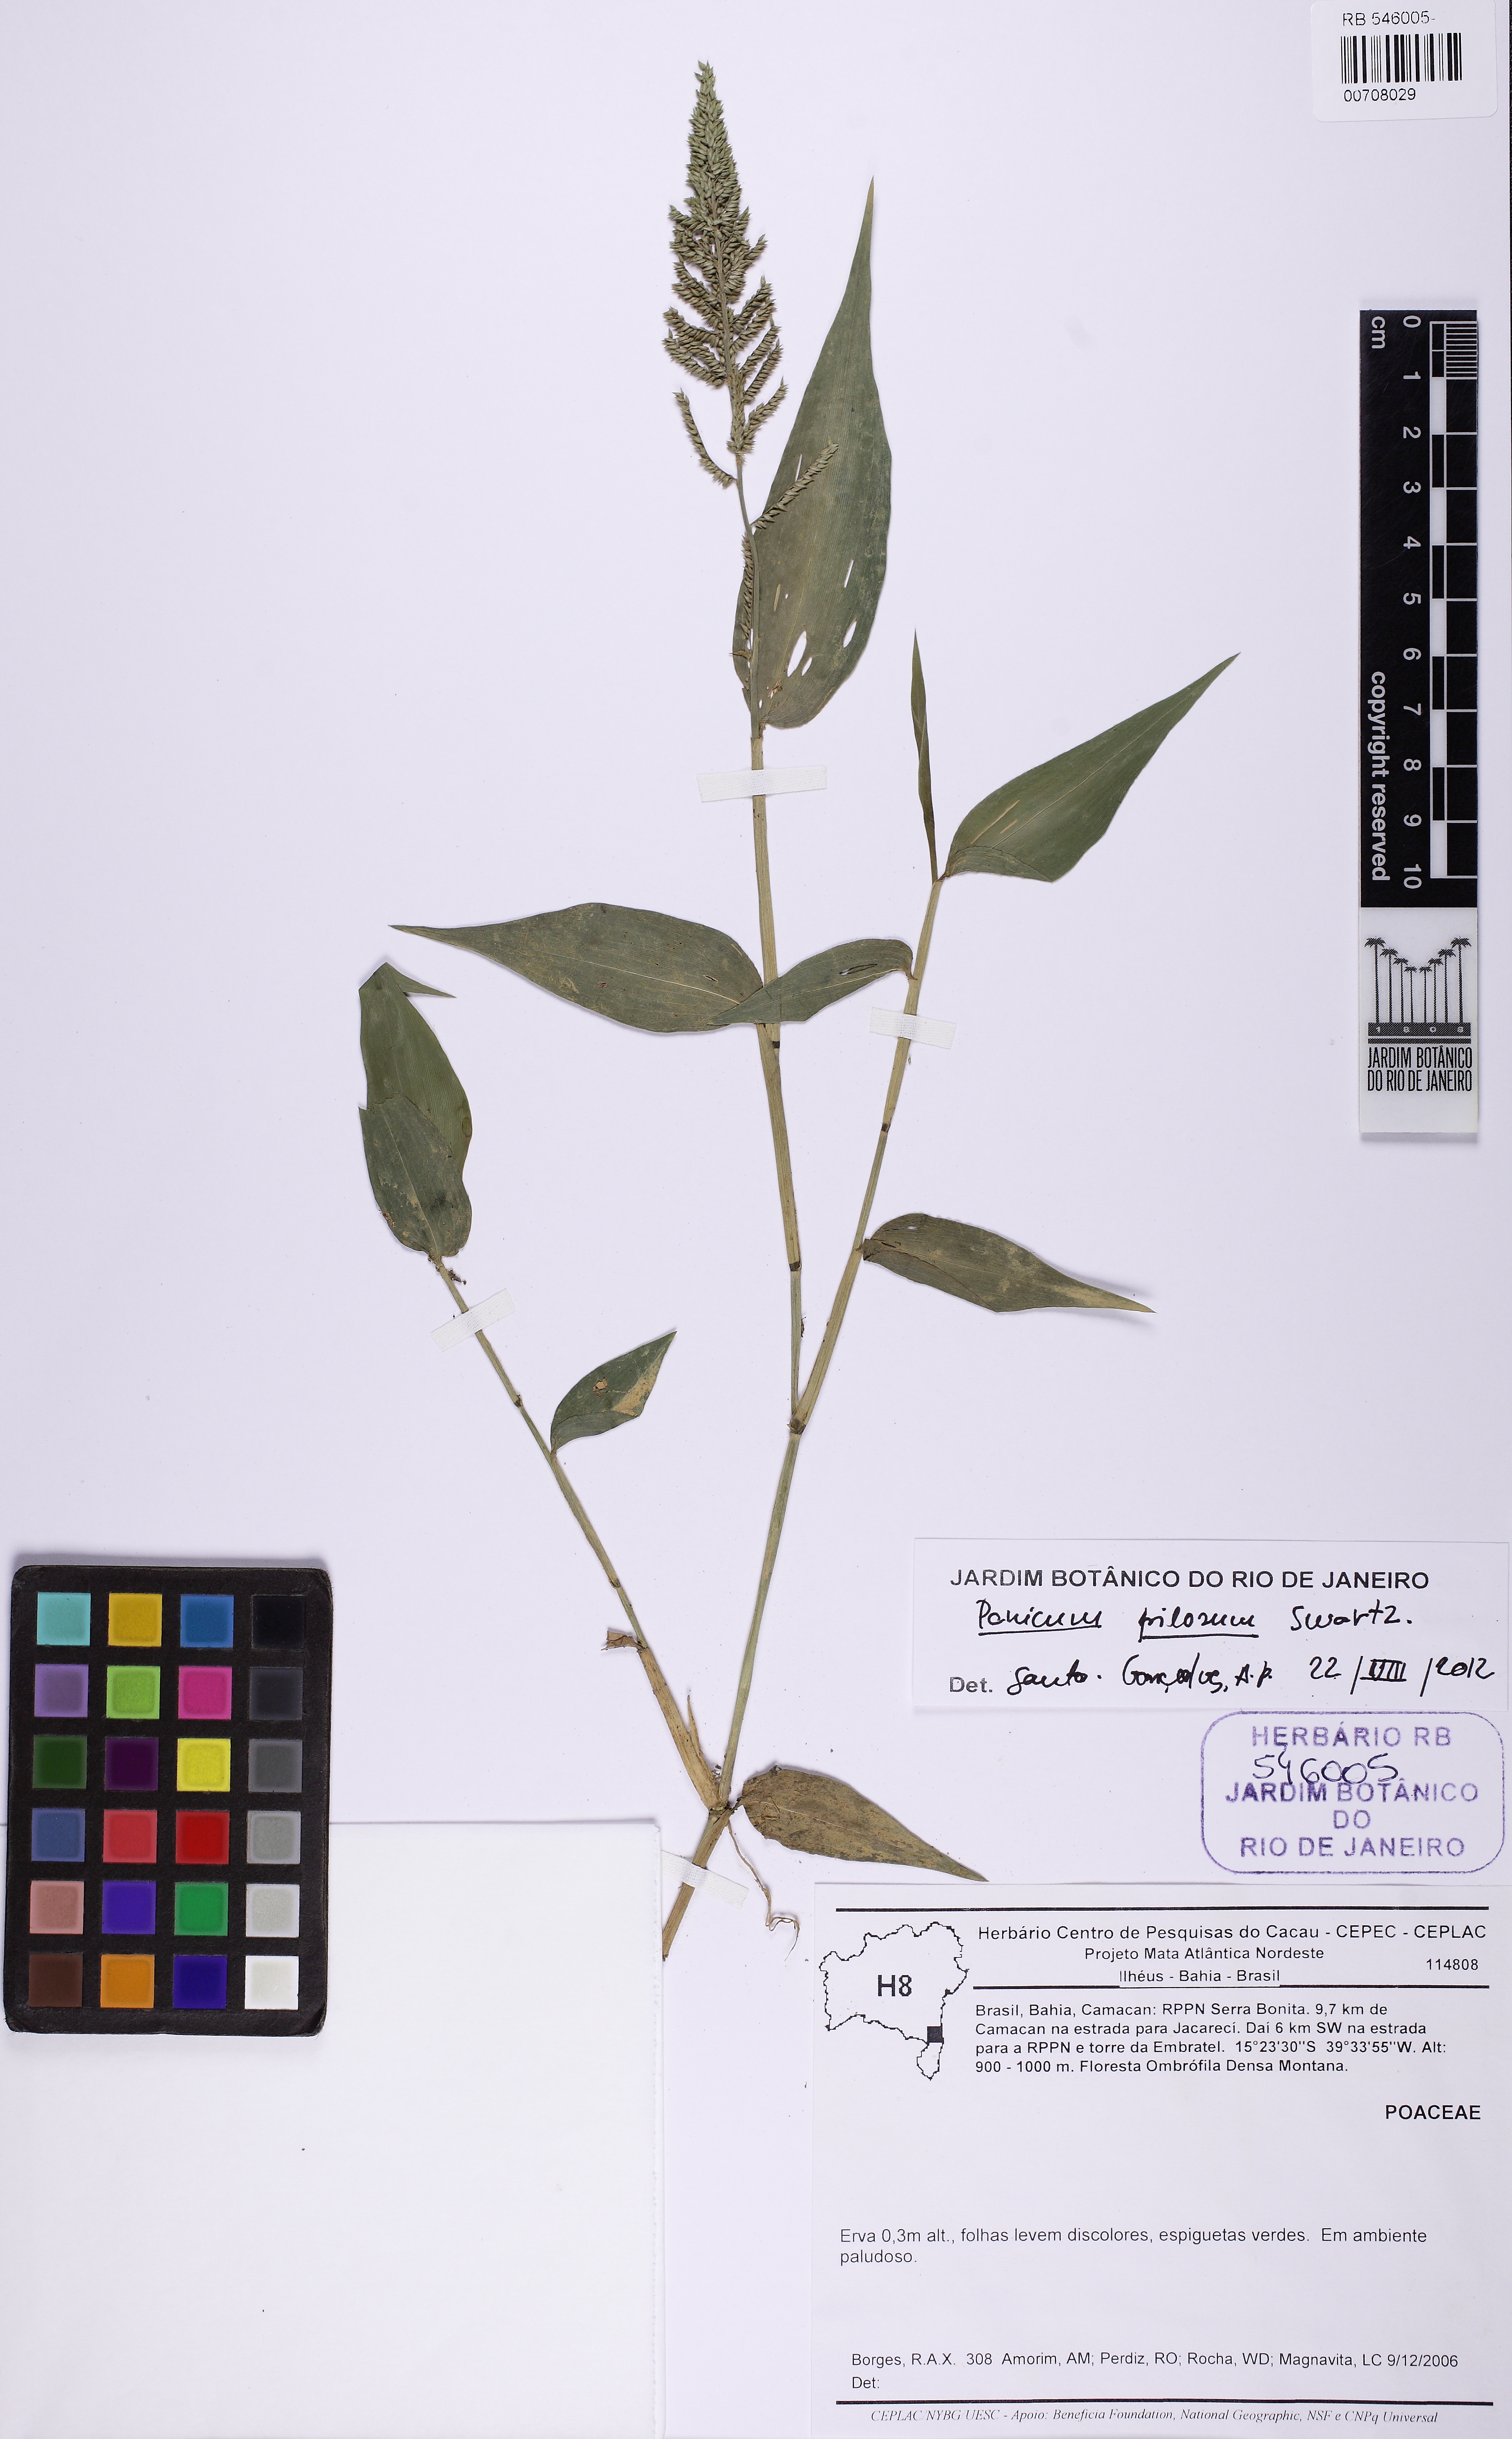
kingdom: Plantae
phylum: Tracheophyta
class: Liliopsida
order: Poales
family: Poaceae
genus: Rugoloa
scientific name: Rugoloa pilosa
